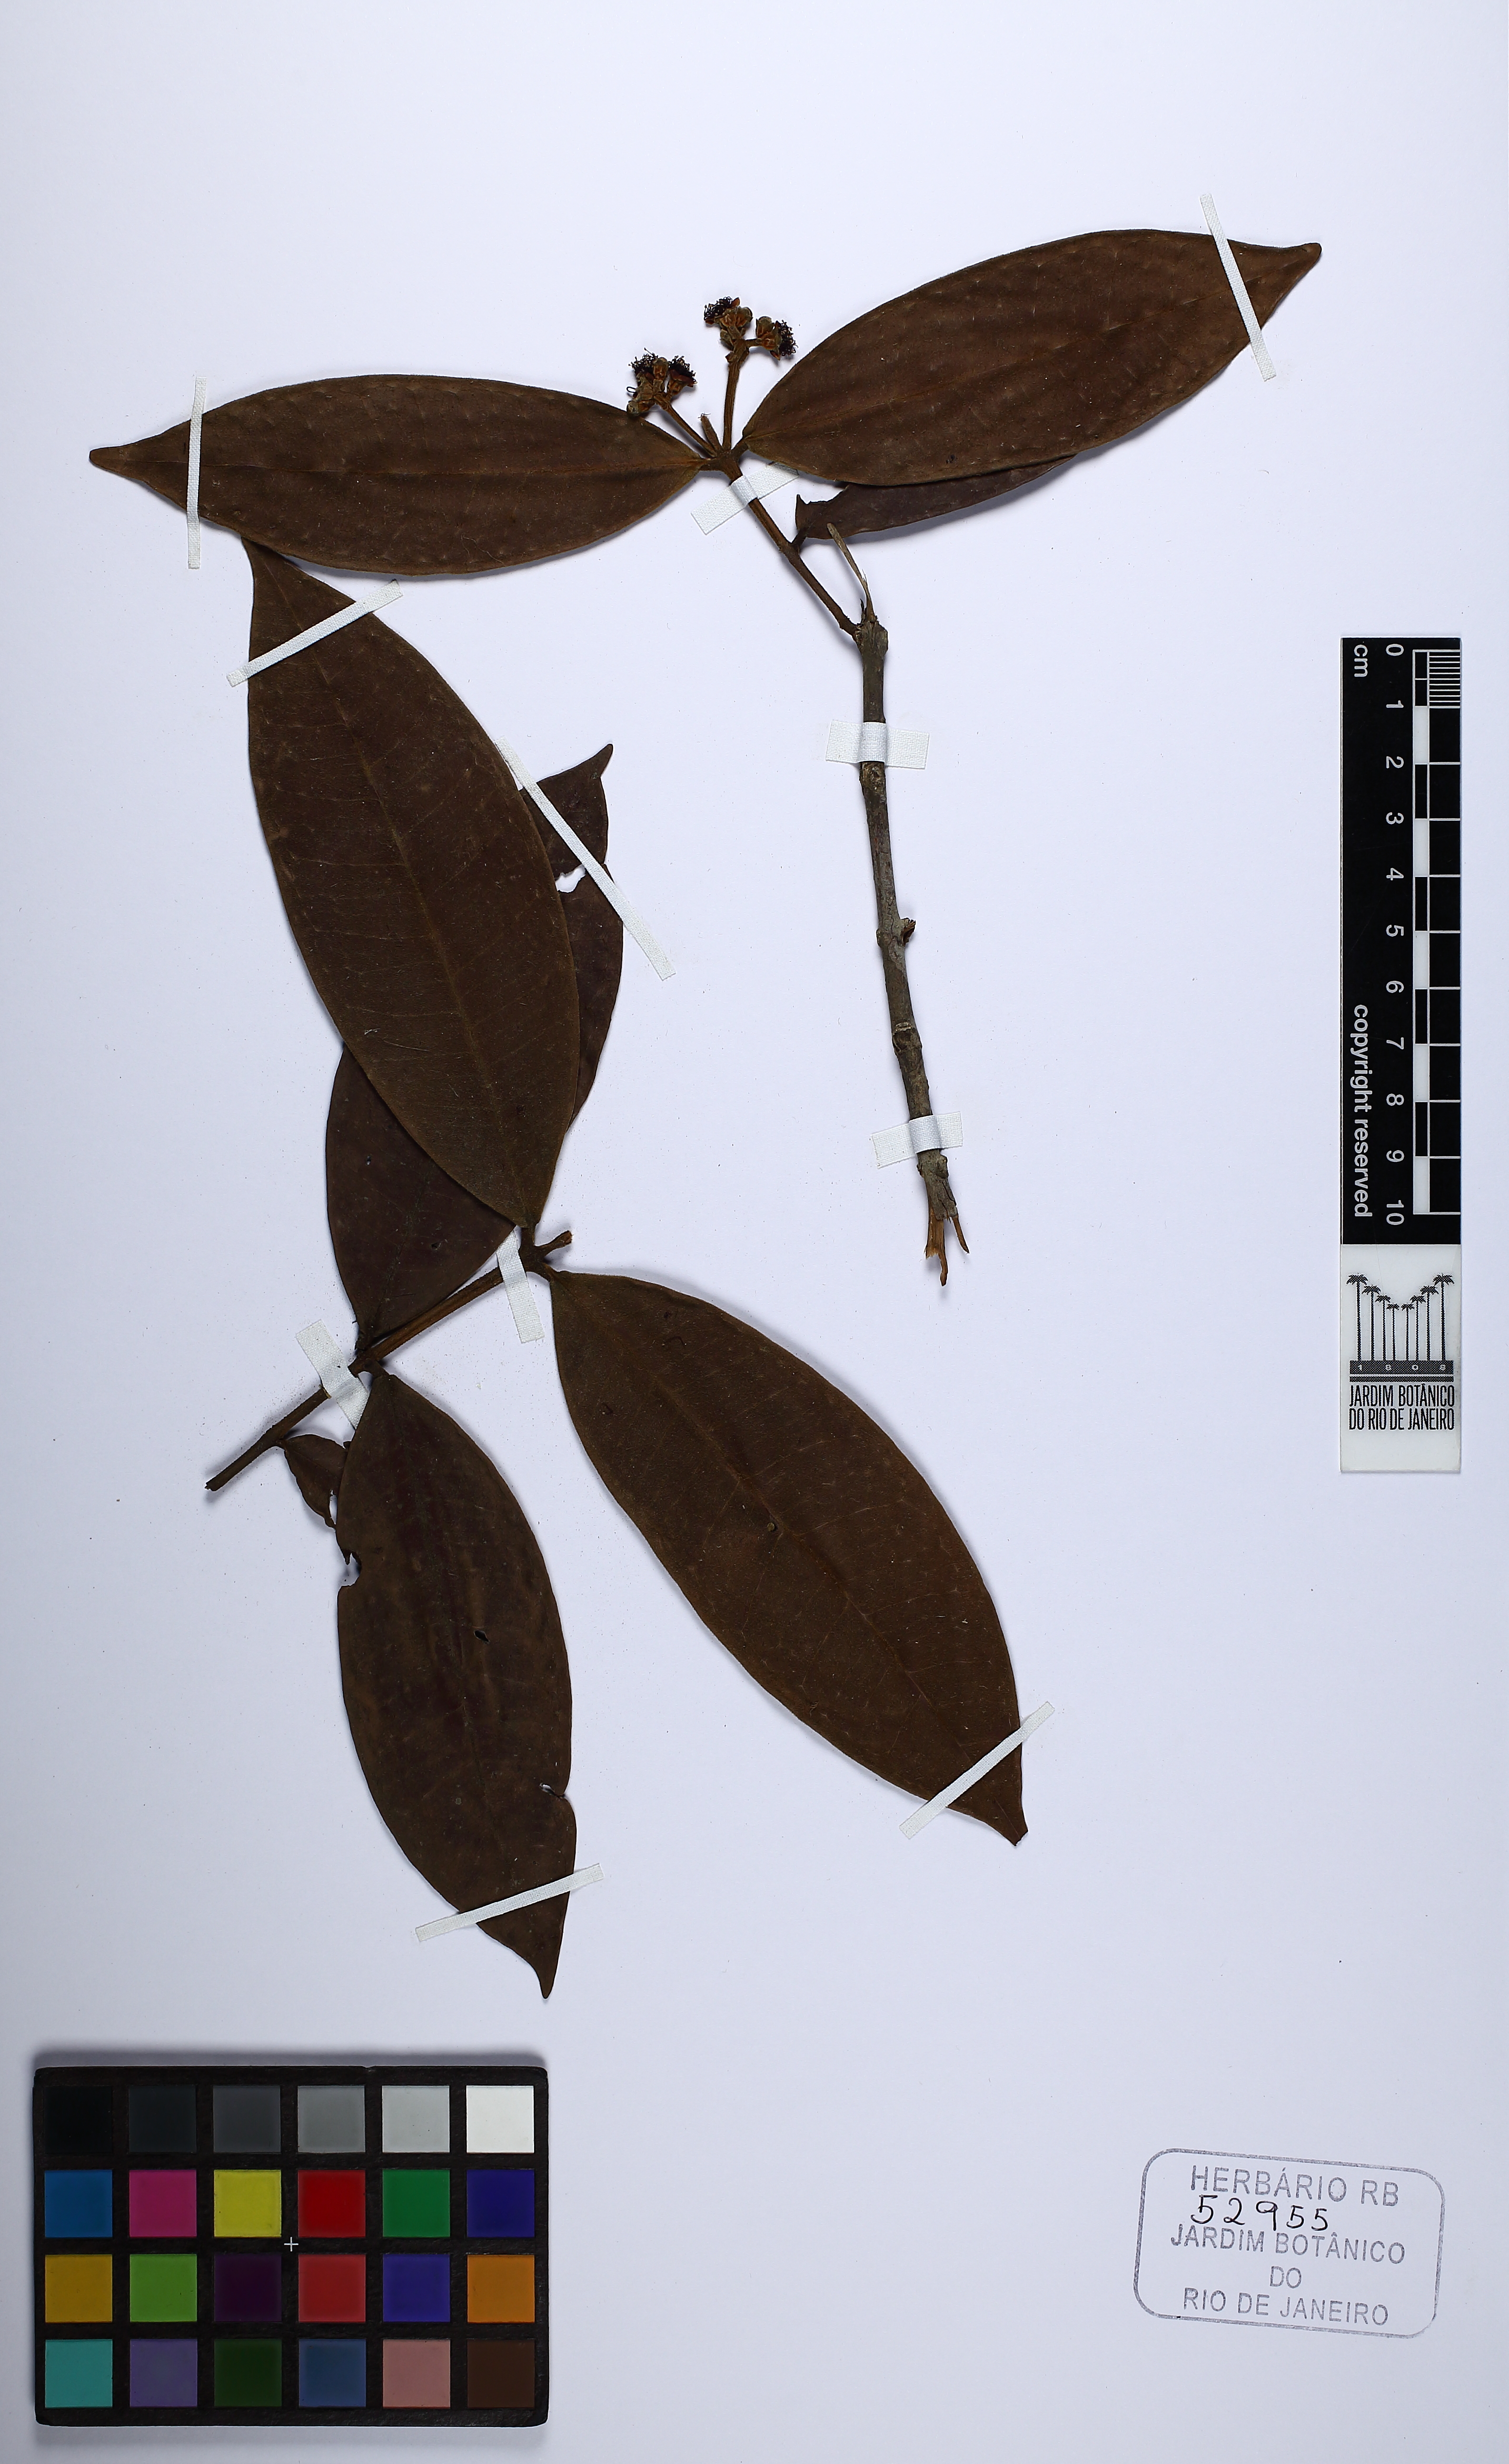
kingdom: Plantae
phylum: Tracheophyta
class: Magnoliopsida
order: Myrtales
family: Myrtaceae
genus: Myrcia
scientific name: Myrcia gestasiana
